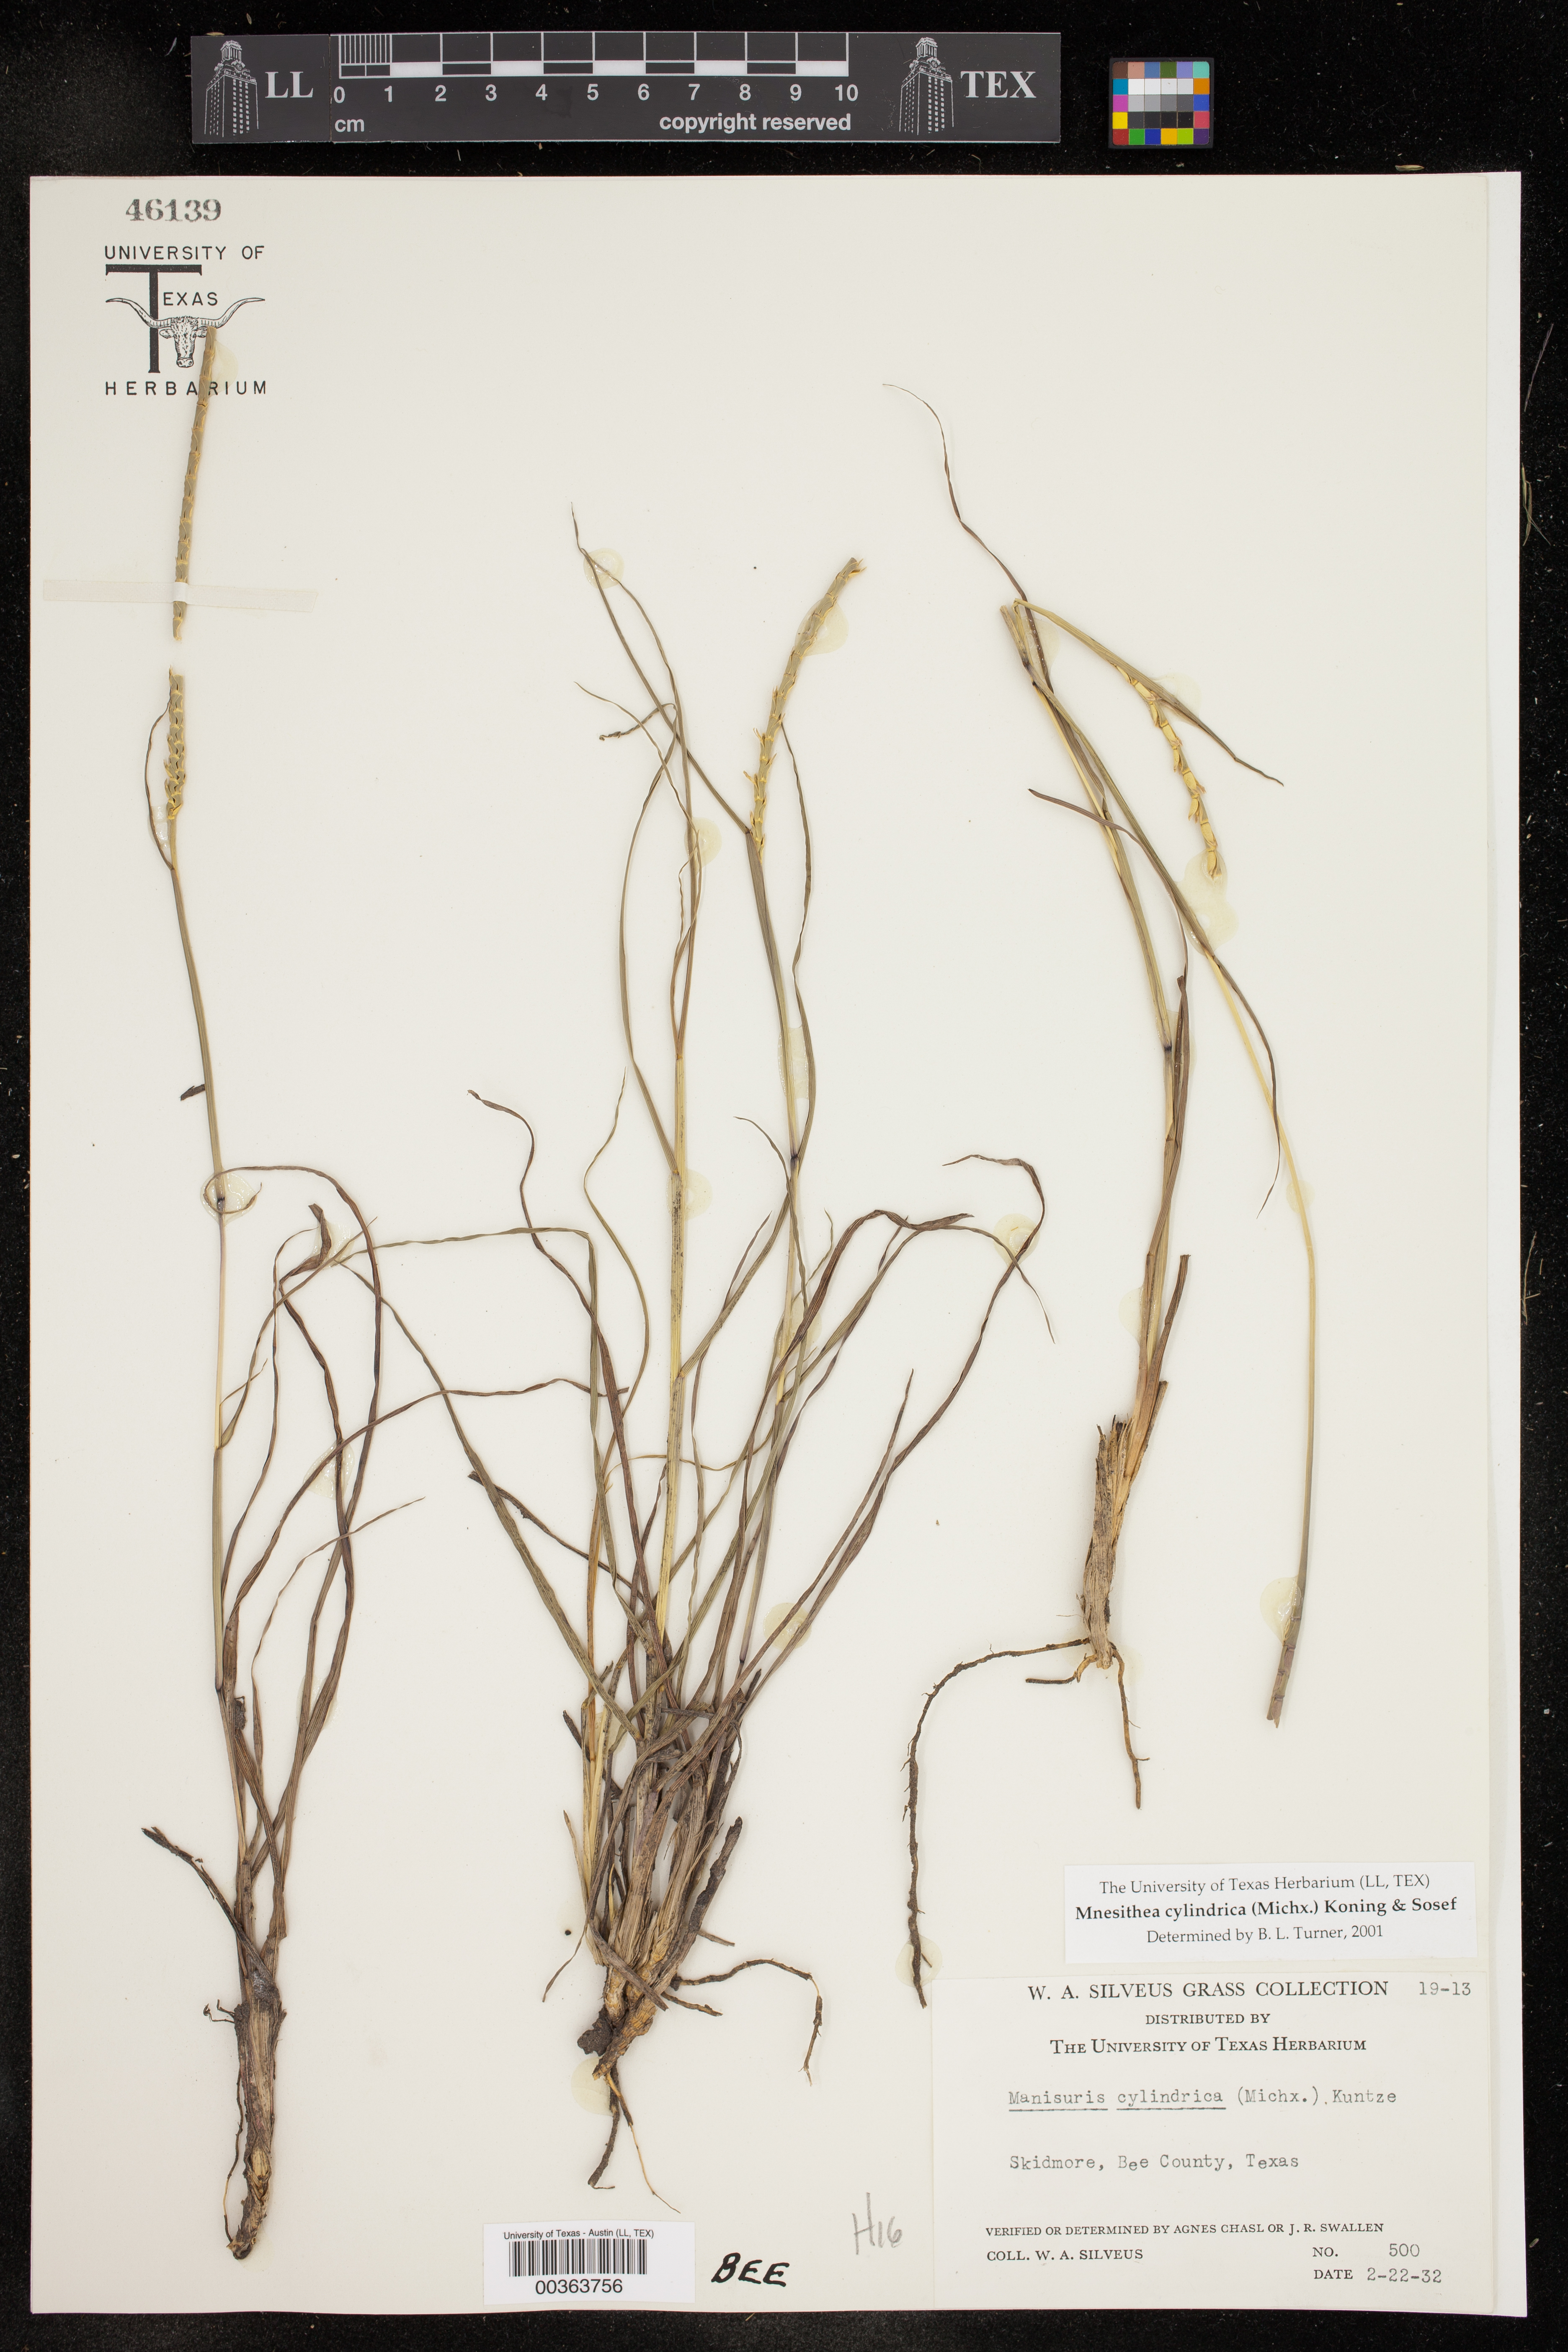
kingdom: Plantae
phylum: Tracheophyta
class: Liliopsida
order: Poales
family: Poaceae
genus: Rottboellia
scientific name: Rottboellia campestris
